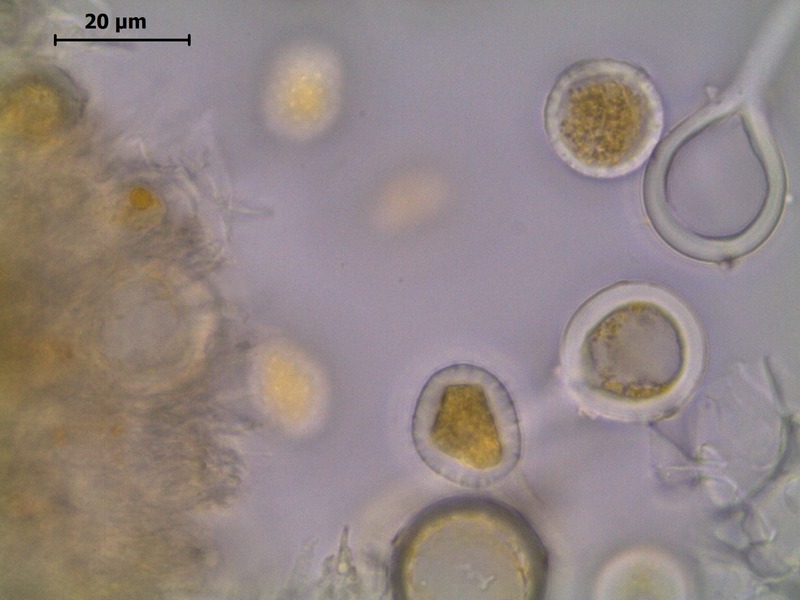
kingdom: Fungi
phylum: Basidiomycota
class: Pucciniomycetes
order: Pucciniales
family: Melampsoraceae
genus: Melampsora
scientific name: Melampsora caprearum
